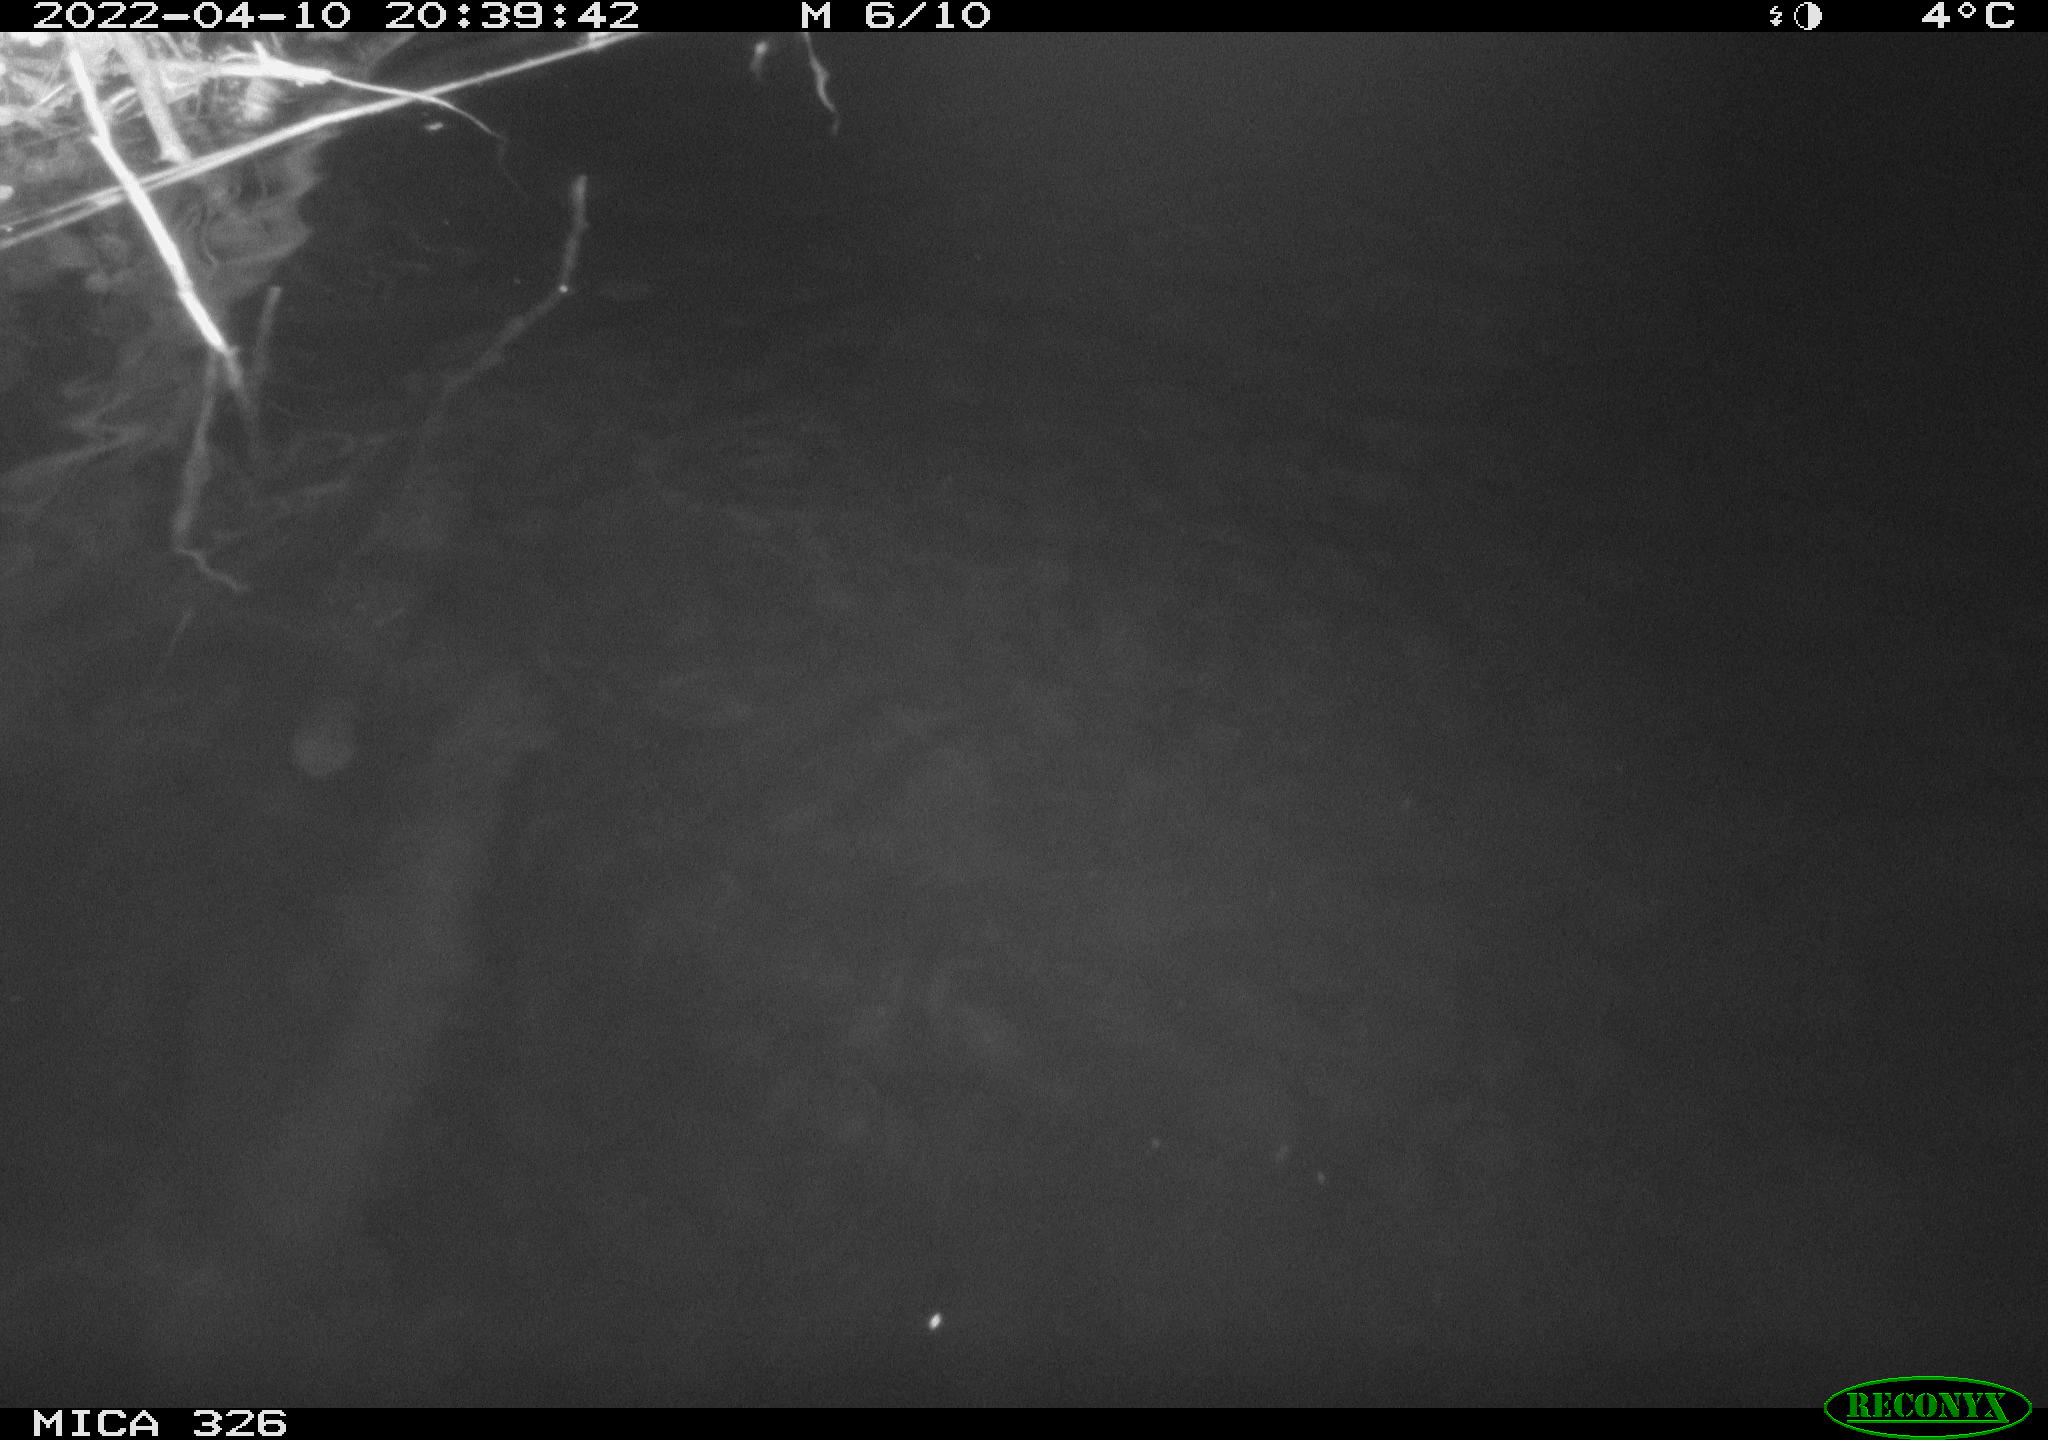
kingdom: Animalia
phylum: Chordata
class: Mammalia
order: Rodentia
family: Cricetidae
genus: Ondatra
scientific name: Ondatra zibethicus
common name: Muskrat
